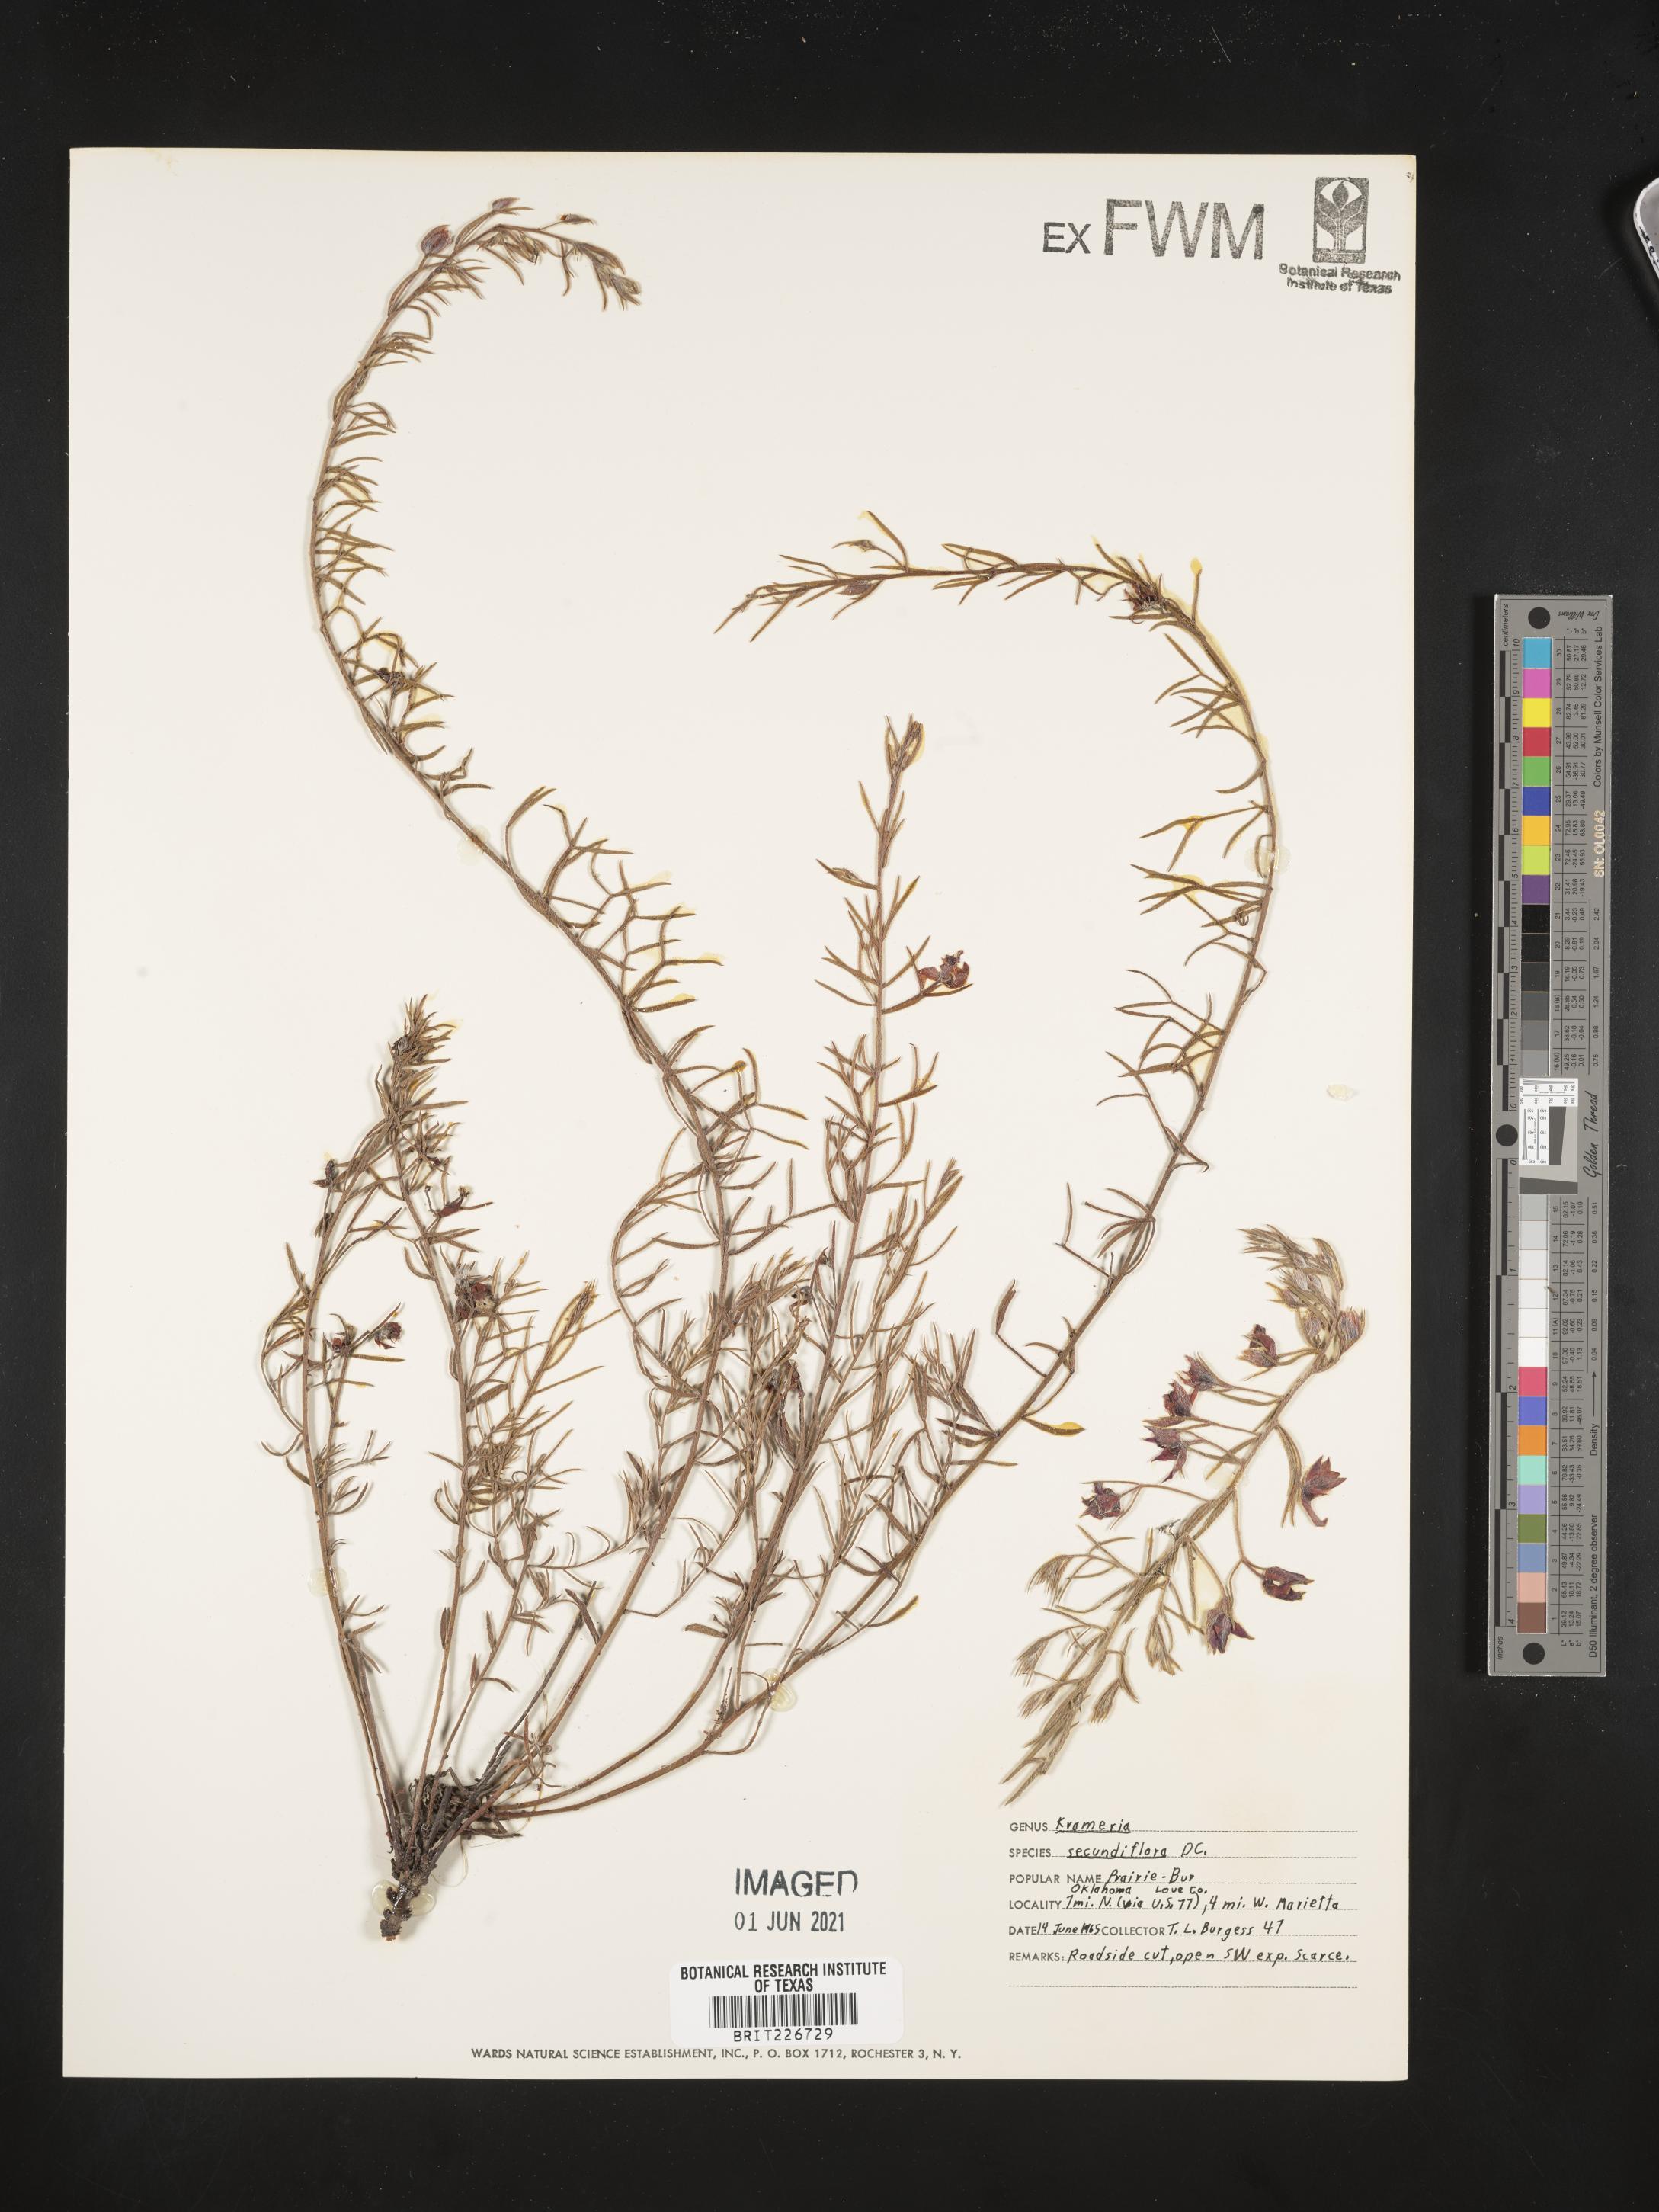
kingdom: Plantae
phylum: Tracheophyta
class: Magnoliopsida
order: Zygophyllales
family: Krameriaceae
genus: Krameria
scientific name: Krameria secundiflora
